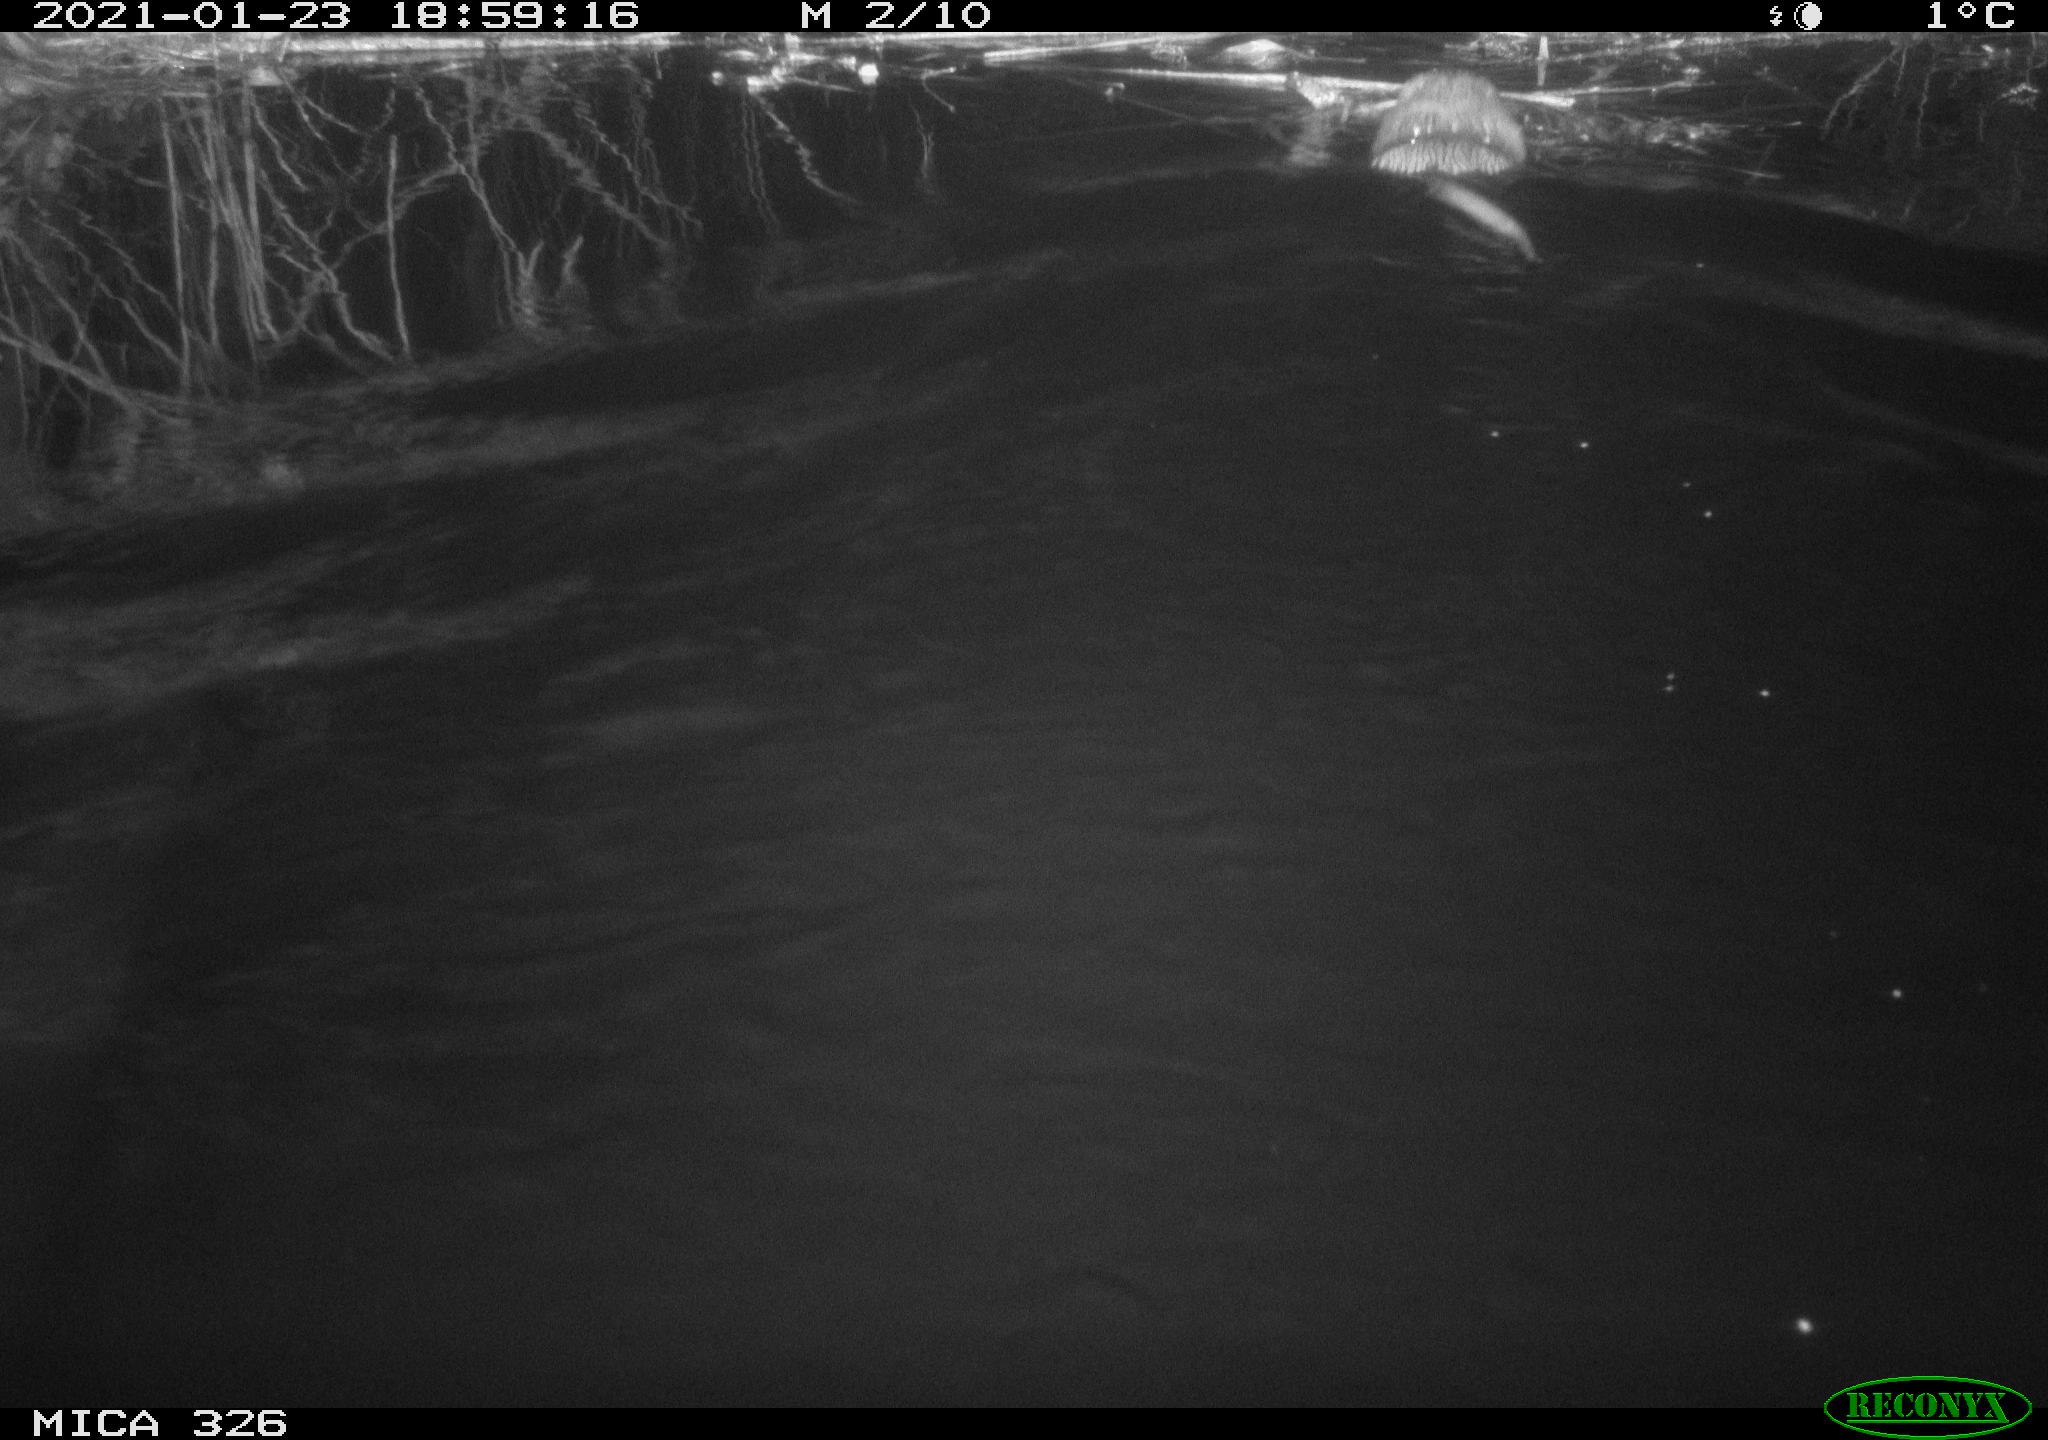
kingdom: Animalia
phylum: Chordata
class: Mammalia
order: Rodentia
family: Cricetidae
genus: Ondatra
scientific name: Ondatra zibethicus
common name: Muskrat
